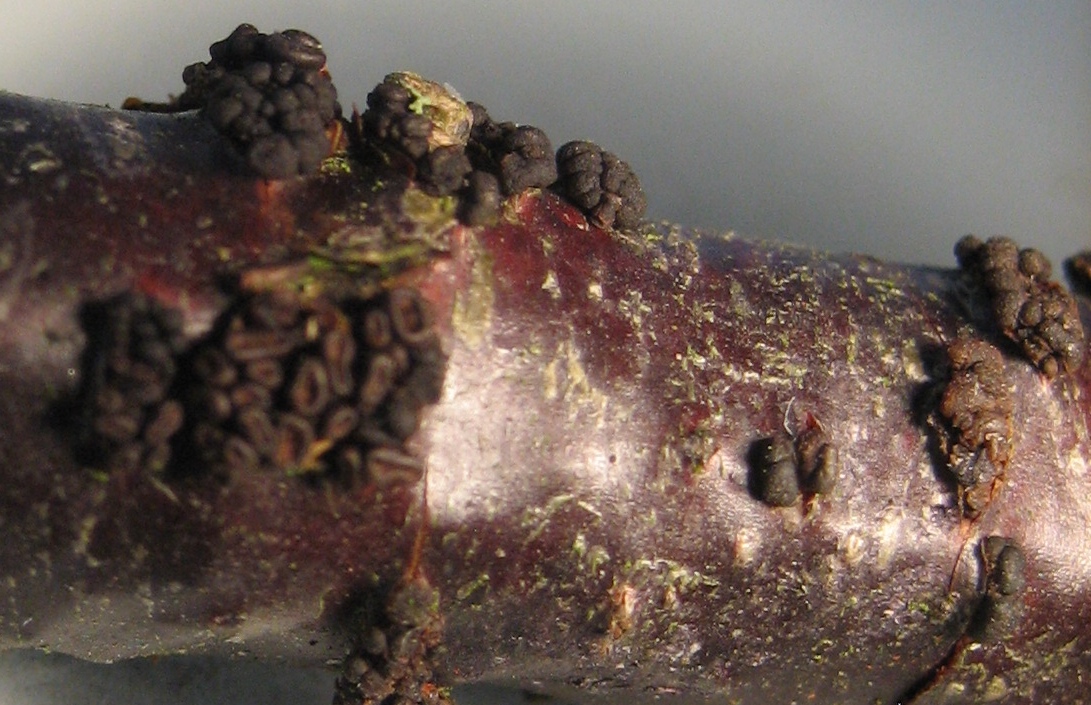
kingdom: Fungi
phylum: Ascomycota
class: Leotiomycetes
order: Helotiales
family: Godroniaceae
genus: Godronia
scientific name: Godronia ribis
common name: ribs-urneskive
